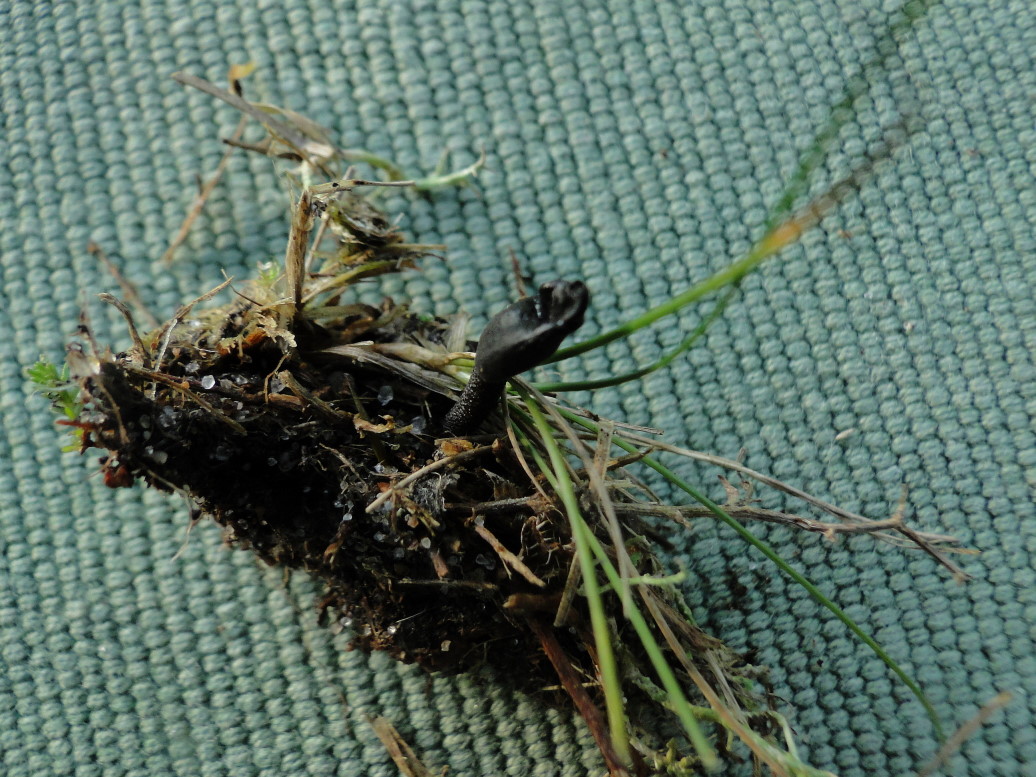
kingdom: Fungi
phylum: Ascomycota
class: Geoglossomycetes
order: Geoglossales
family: Geoglossaceae
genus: Hemileucoglossum
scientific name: Hemileucoglossum elongatum
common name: småsporet jordtunge
